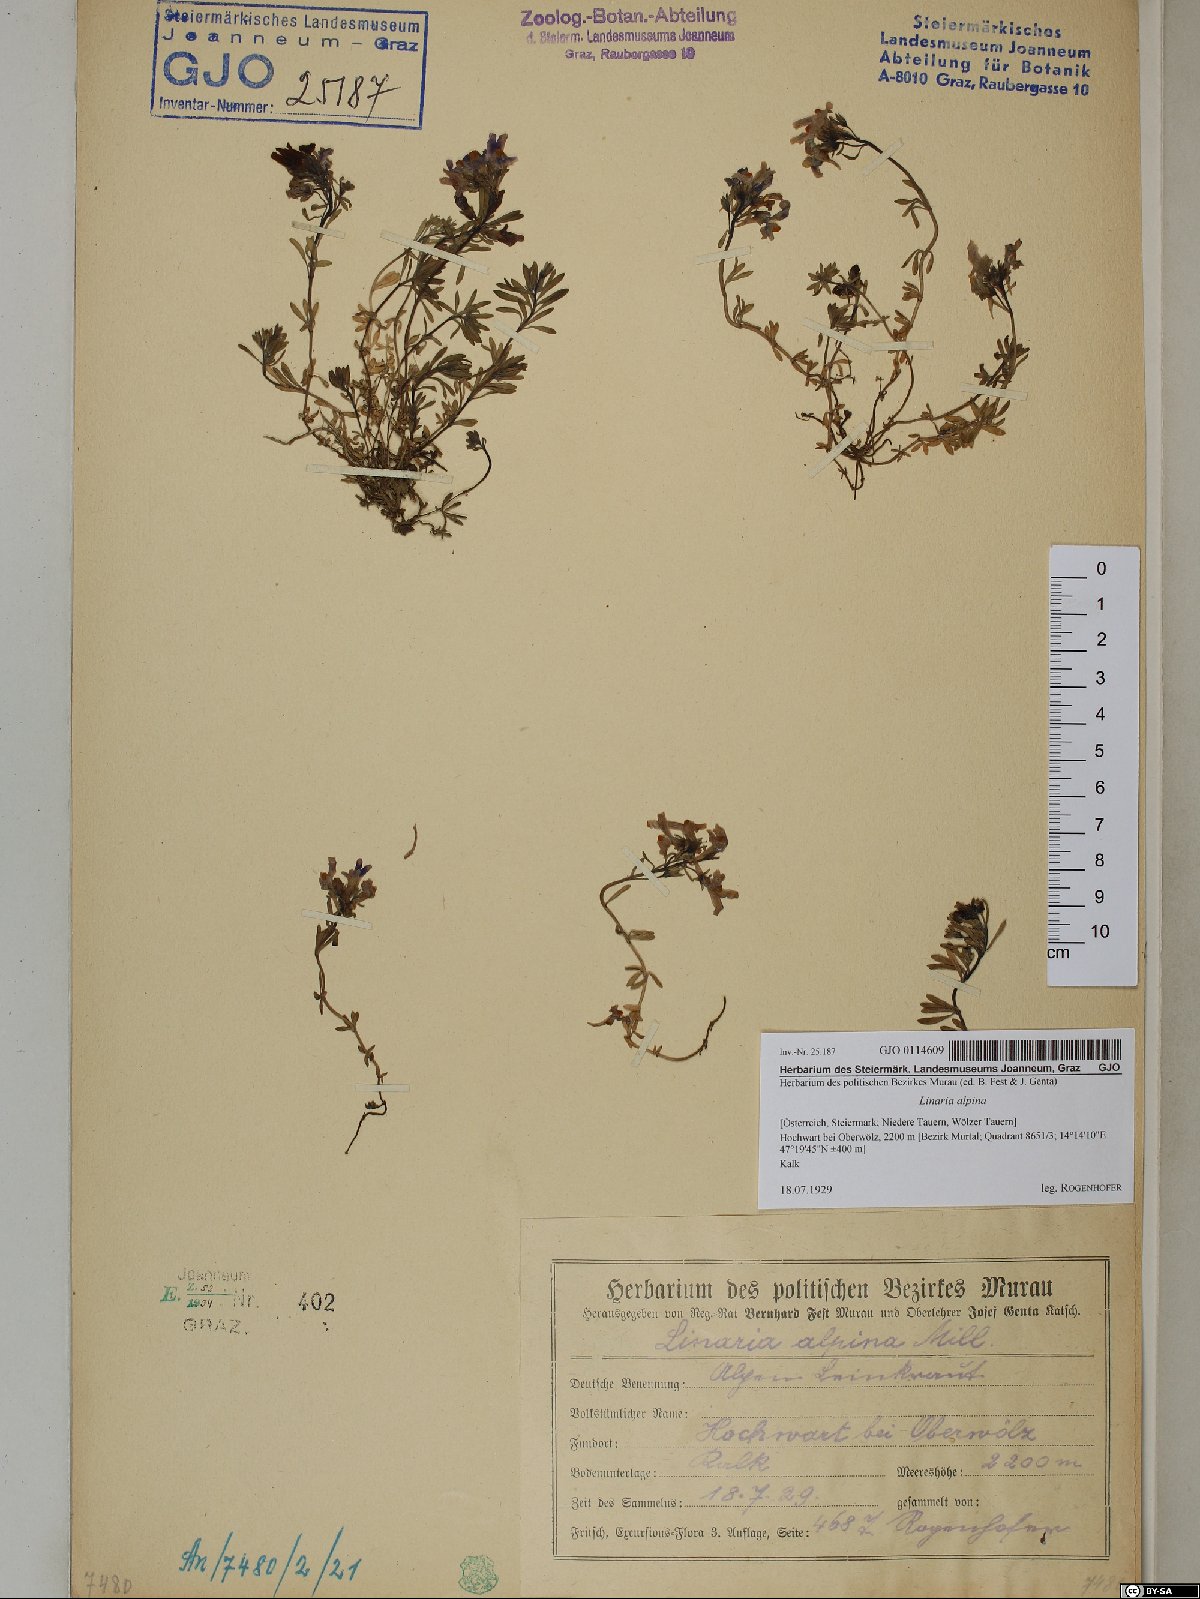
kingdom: Plantae
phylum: Tracheophyta
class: Magnoliopsida
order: Lamiales
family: Plantaginaceae
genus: Linaria
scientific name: Linaria alpina
